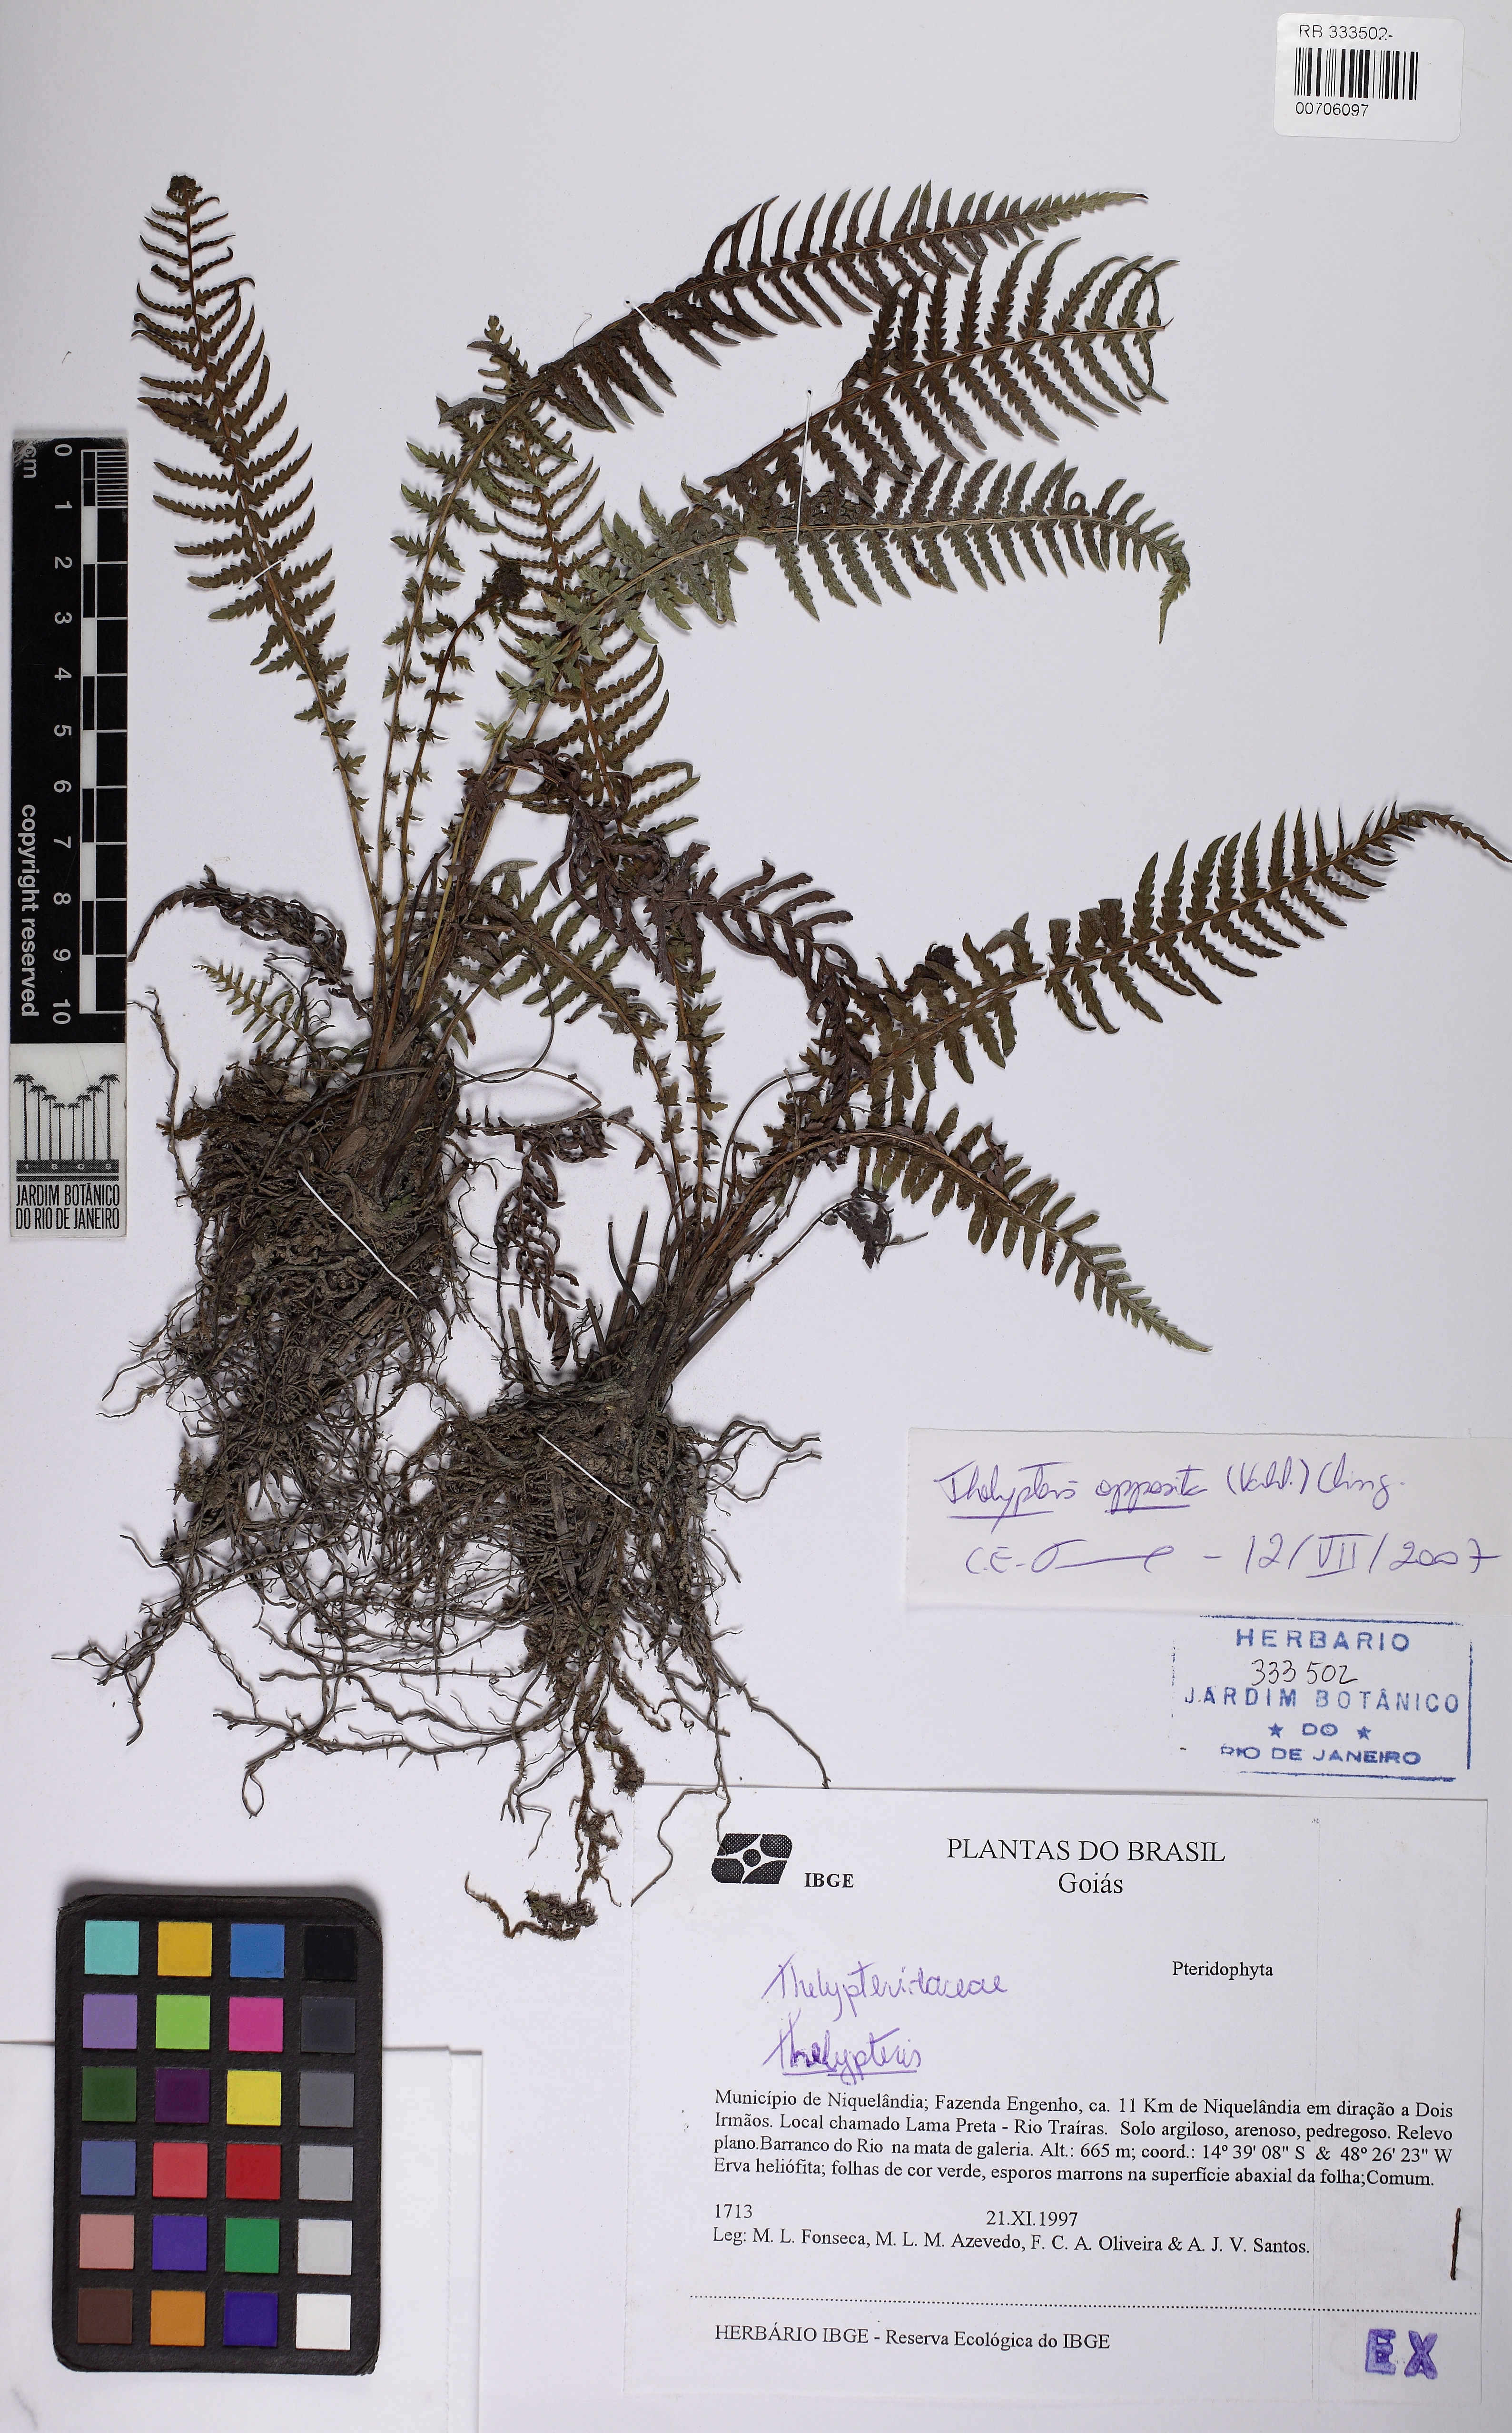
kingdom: Plantae
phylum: Tracheophyta
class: Polypodiopsida
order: Polypodiales
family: Thelypteridaceae
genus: Amauropelta
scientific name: Amauropelta opposita
